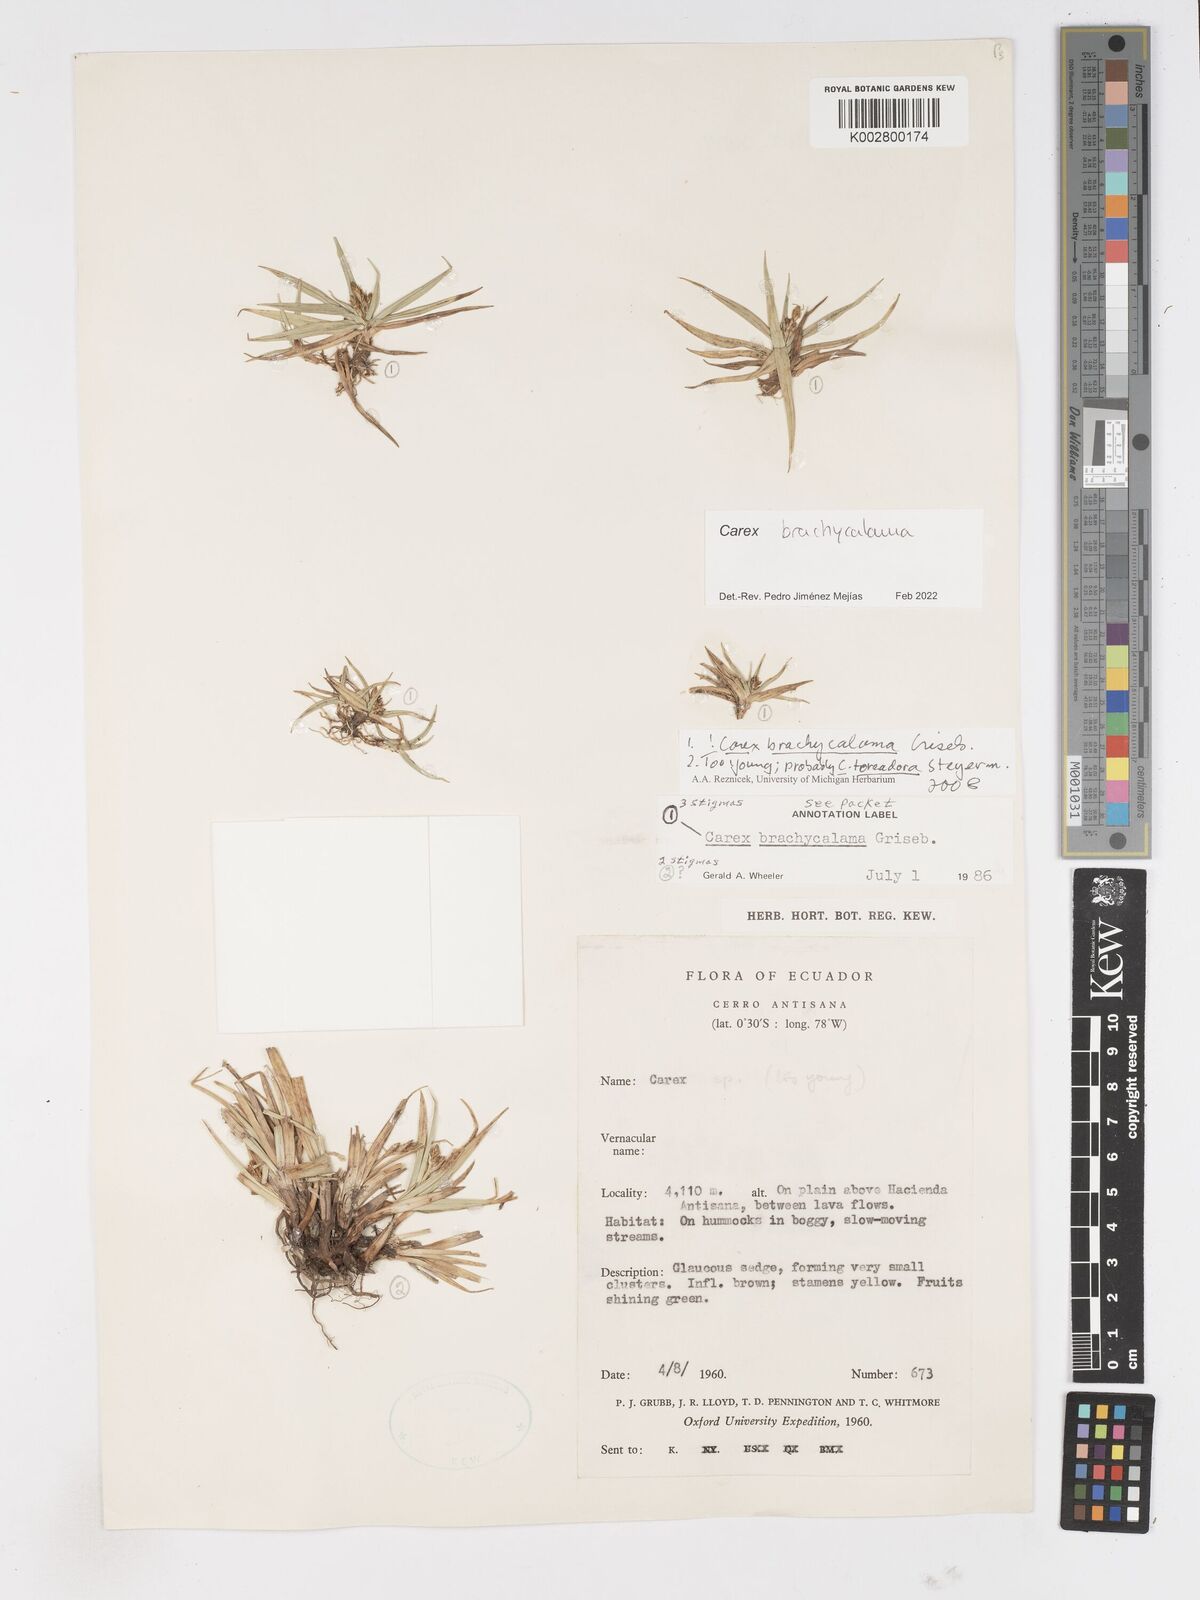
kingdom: Plantae
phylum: Tracheophyta
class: Liliopsida
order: Poales
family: Cyperaceae
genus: Carex
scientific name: Carex brachycalama
